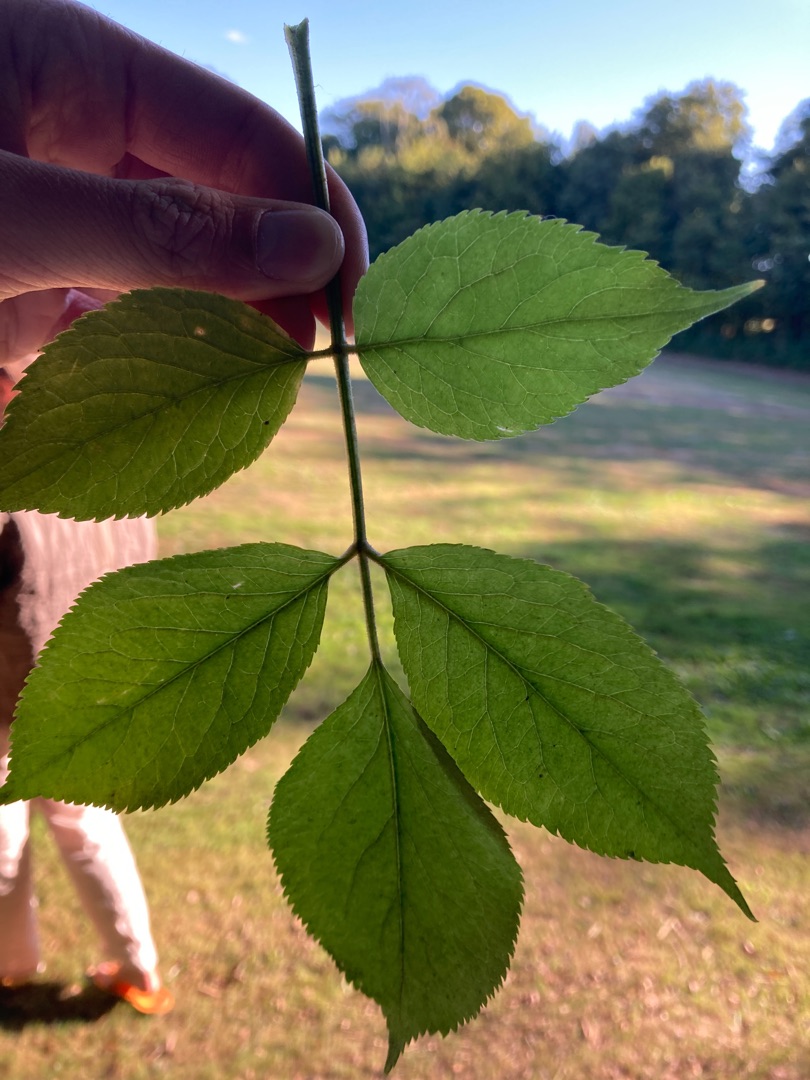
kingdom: Plantae
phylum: Tracheophyta
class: Magnoliopsida
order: Dipsacales
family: Viburnaceae
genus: Sambucus
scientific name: Sambucus
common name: Hyldeslægten
